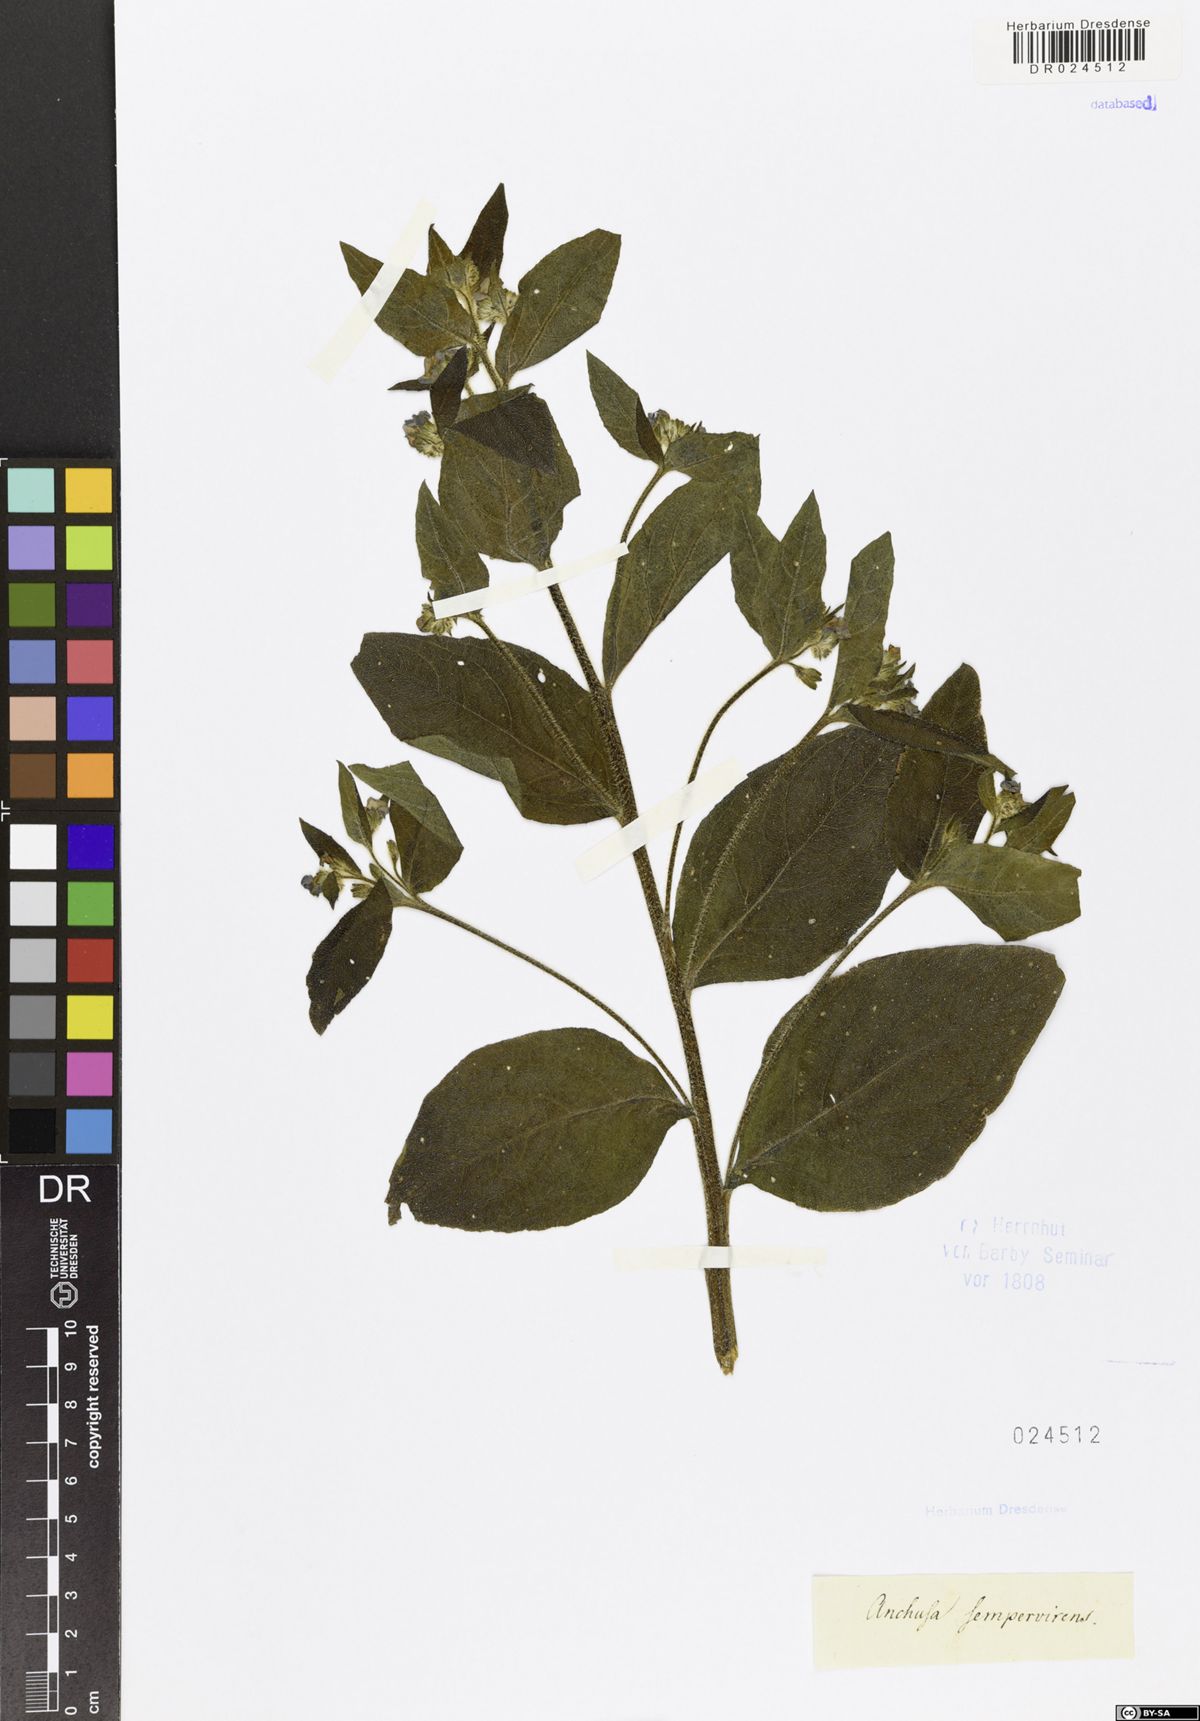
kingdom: Plantae
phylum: Tracheophyta
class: Magnoliopsida
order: Boraginales
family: Boraginaceae
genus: Pentaglottis
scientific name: Pentaglottis sempervirens
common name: Green alkanet
